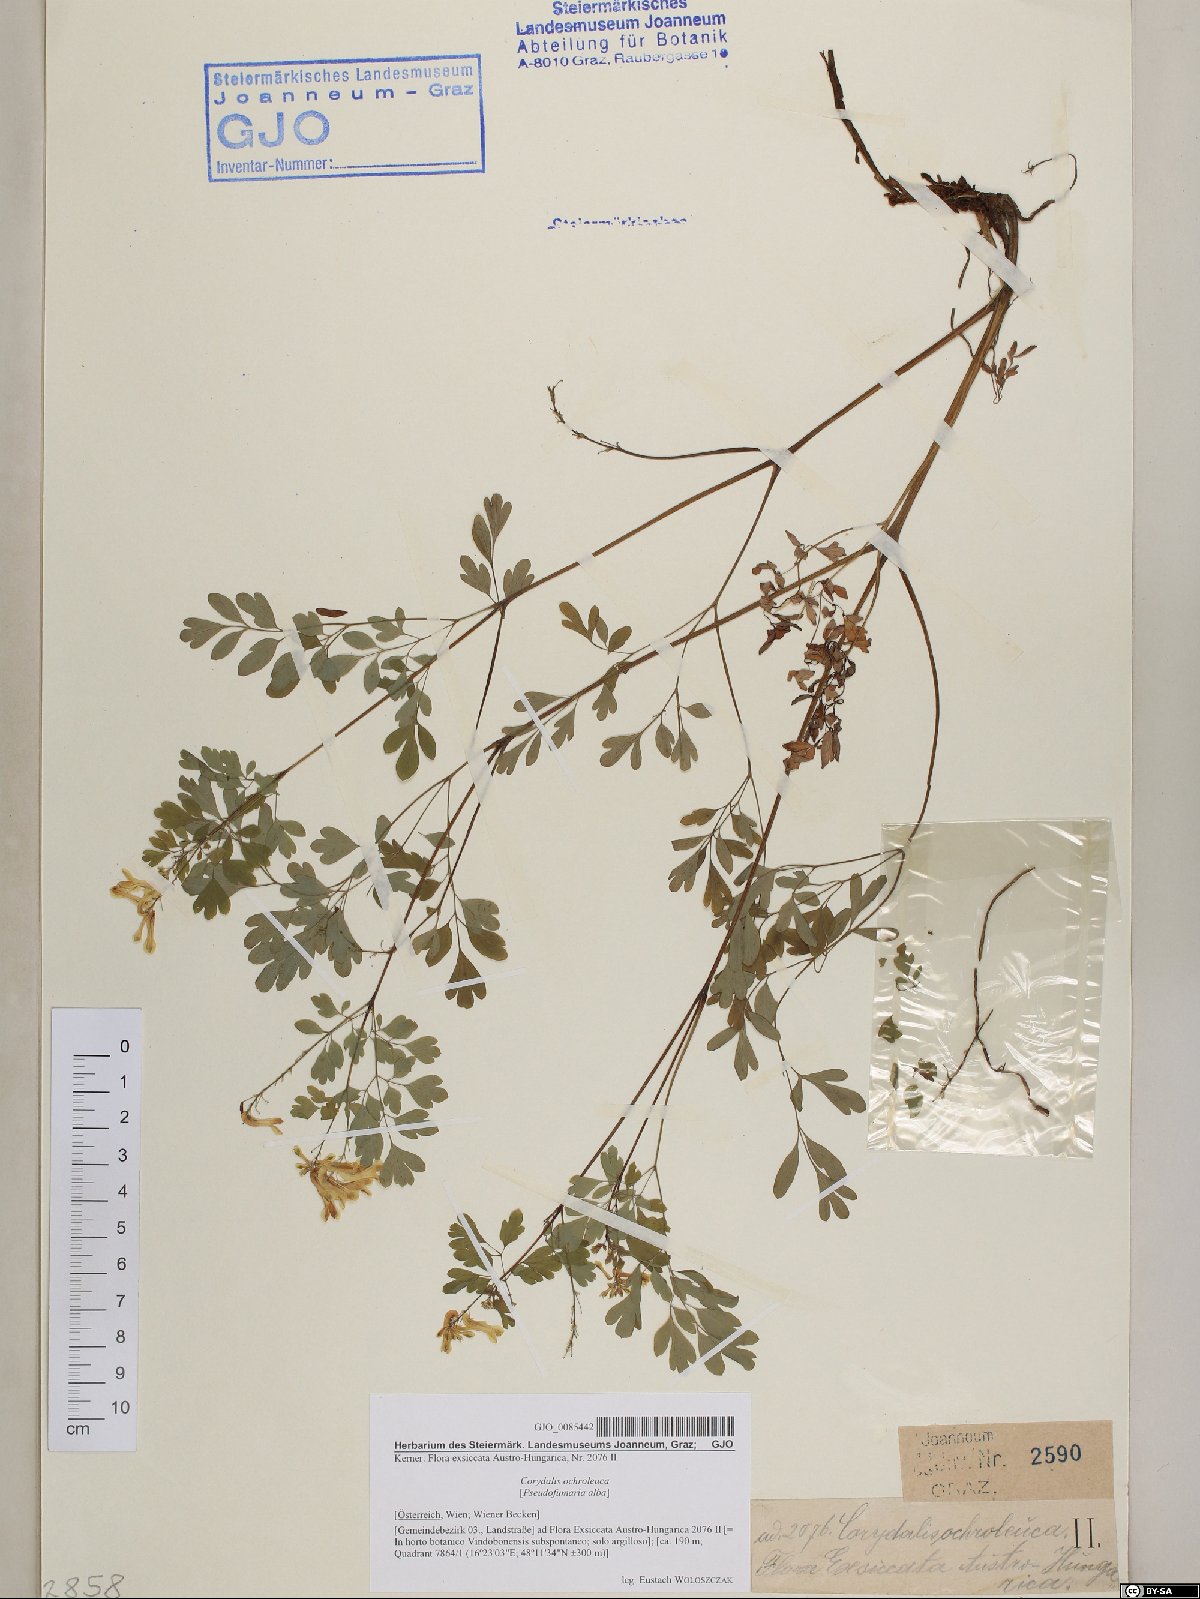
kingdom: Plantae
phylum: Tracheophyta
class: Magnoliopsida
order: Ranunculales
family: Papaveraceae
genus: Pseudofumaria
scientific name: Pseudofumaria alba
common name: Pale corydalis
